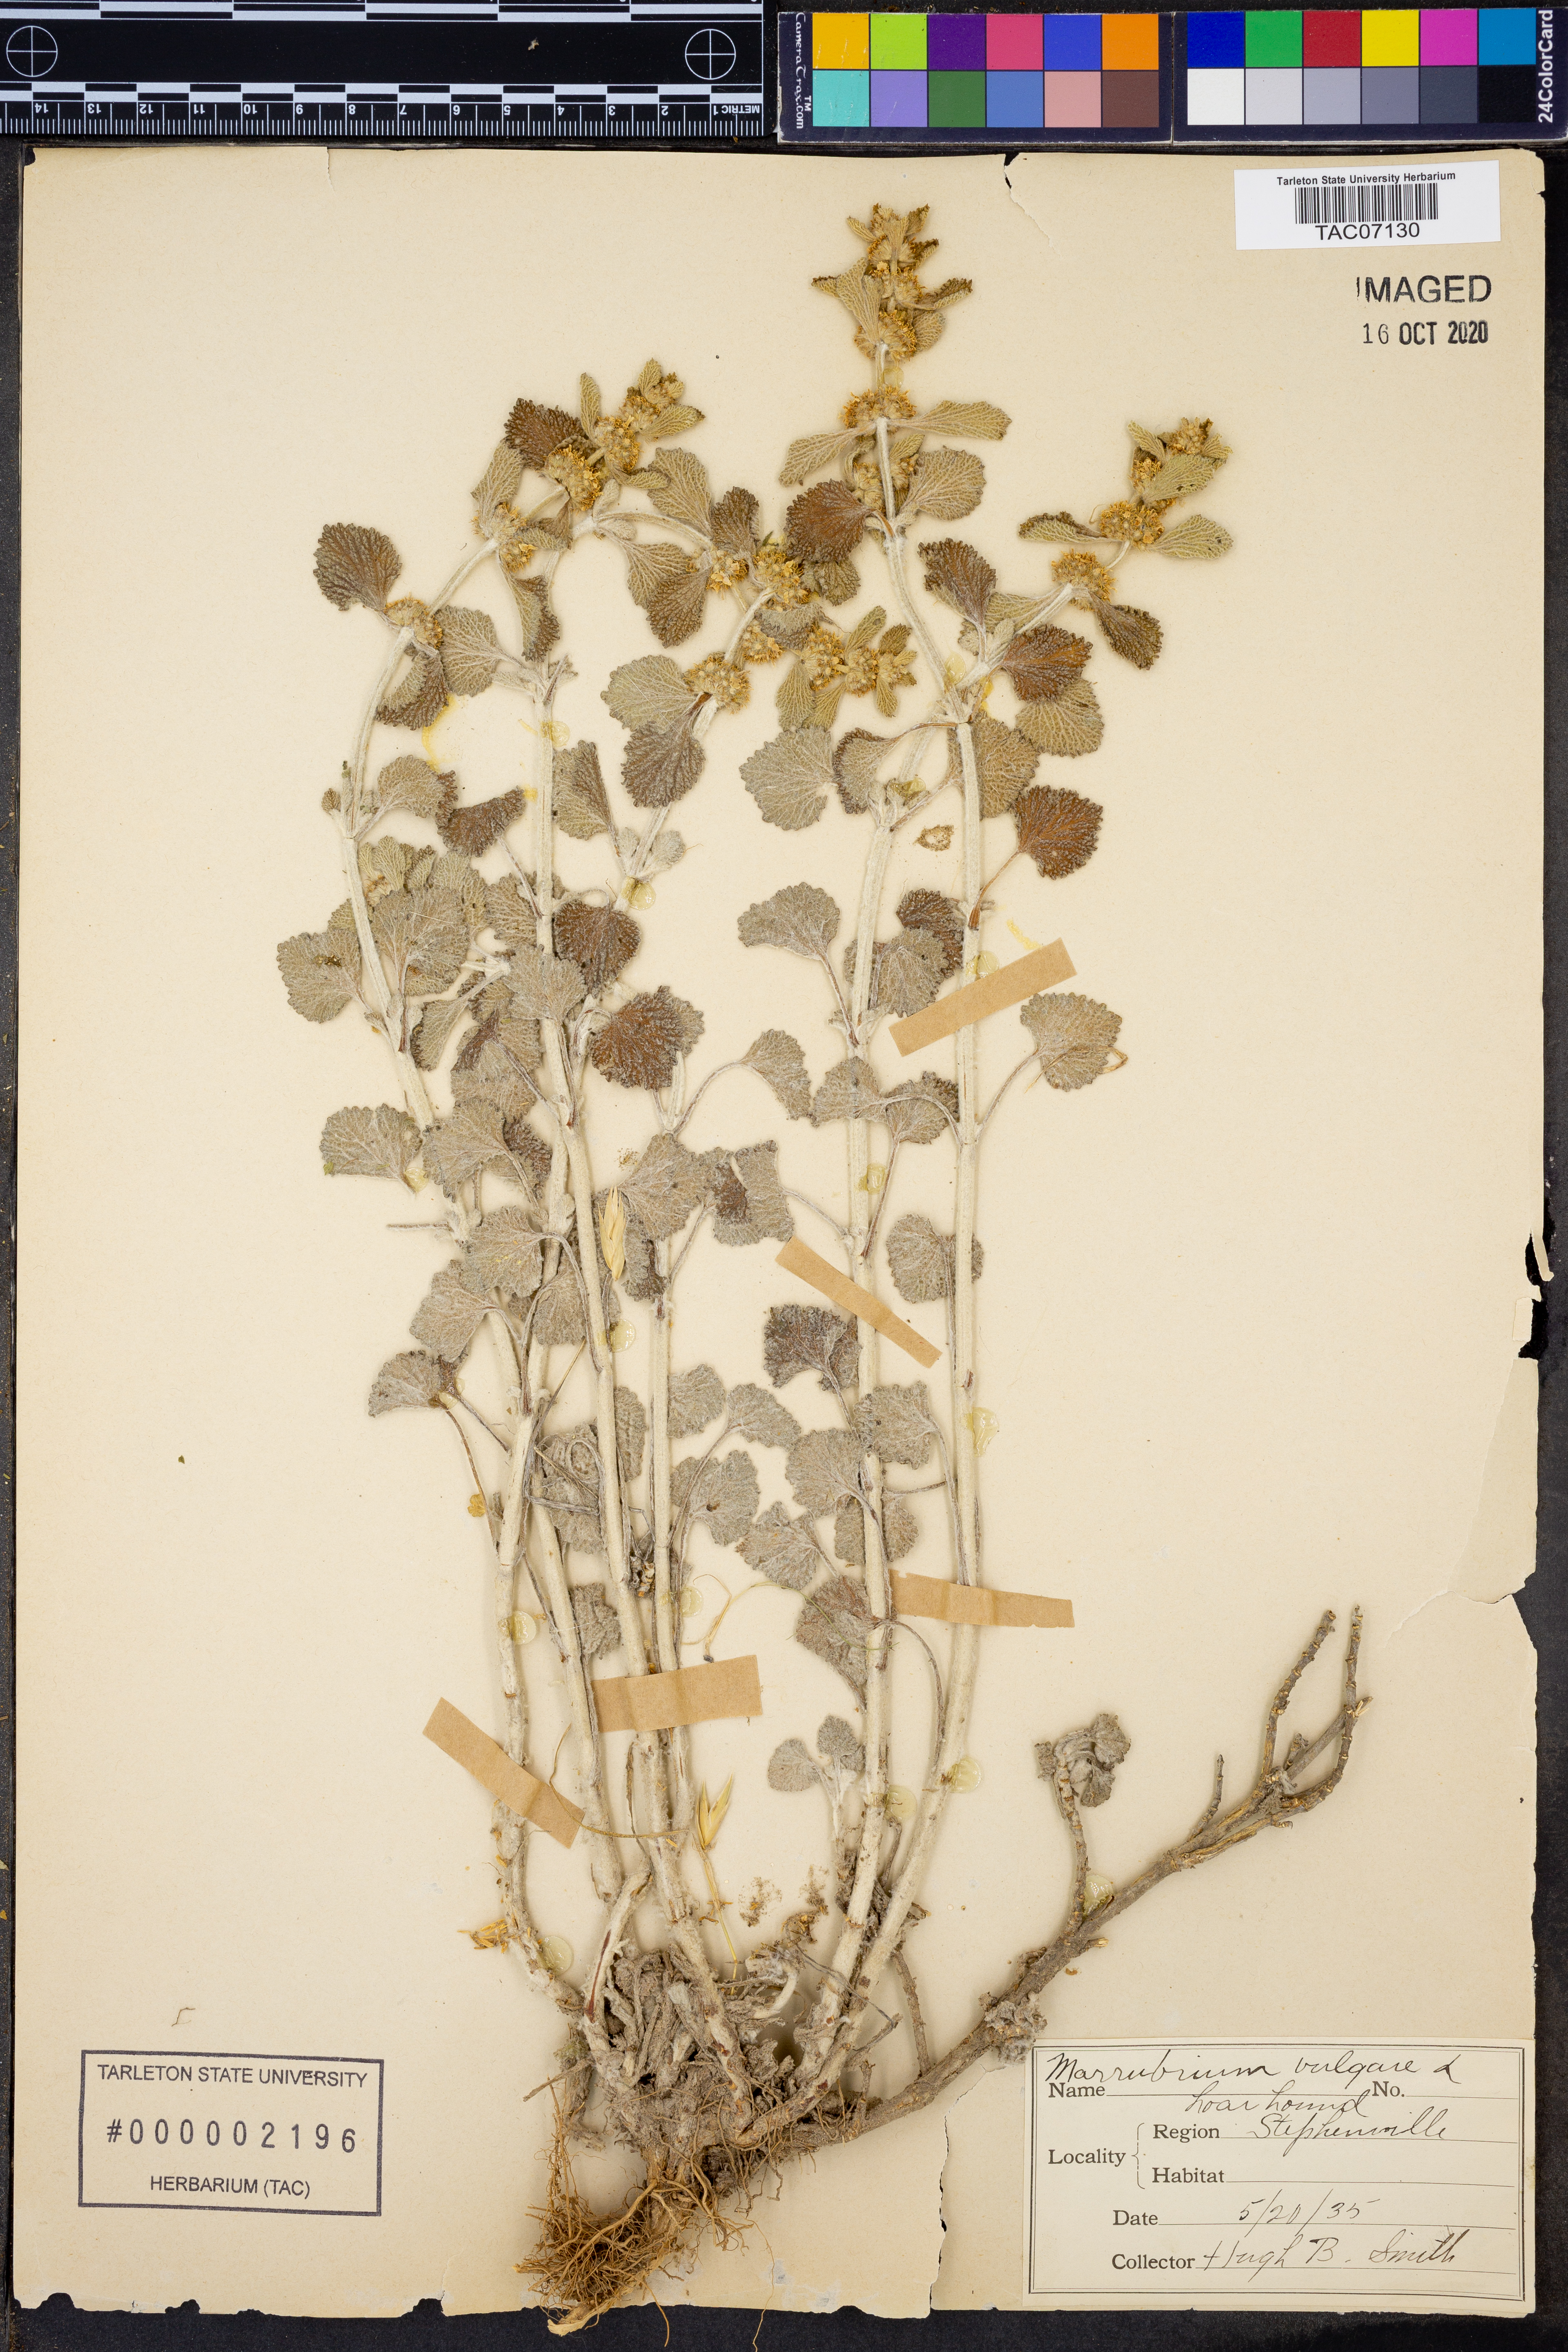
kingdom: Plantae
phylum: Tracheophyta
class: Magnoliopsida
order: Lamiales
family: Lamiaceae
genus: Marrubium
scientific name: Marrubium vulgare
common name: Horehound
